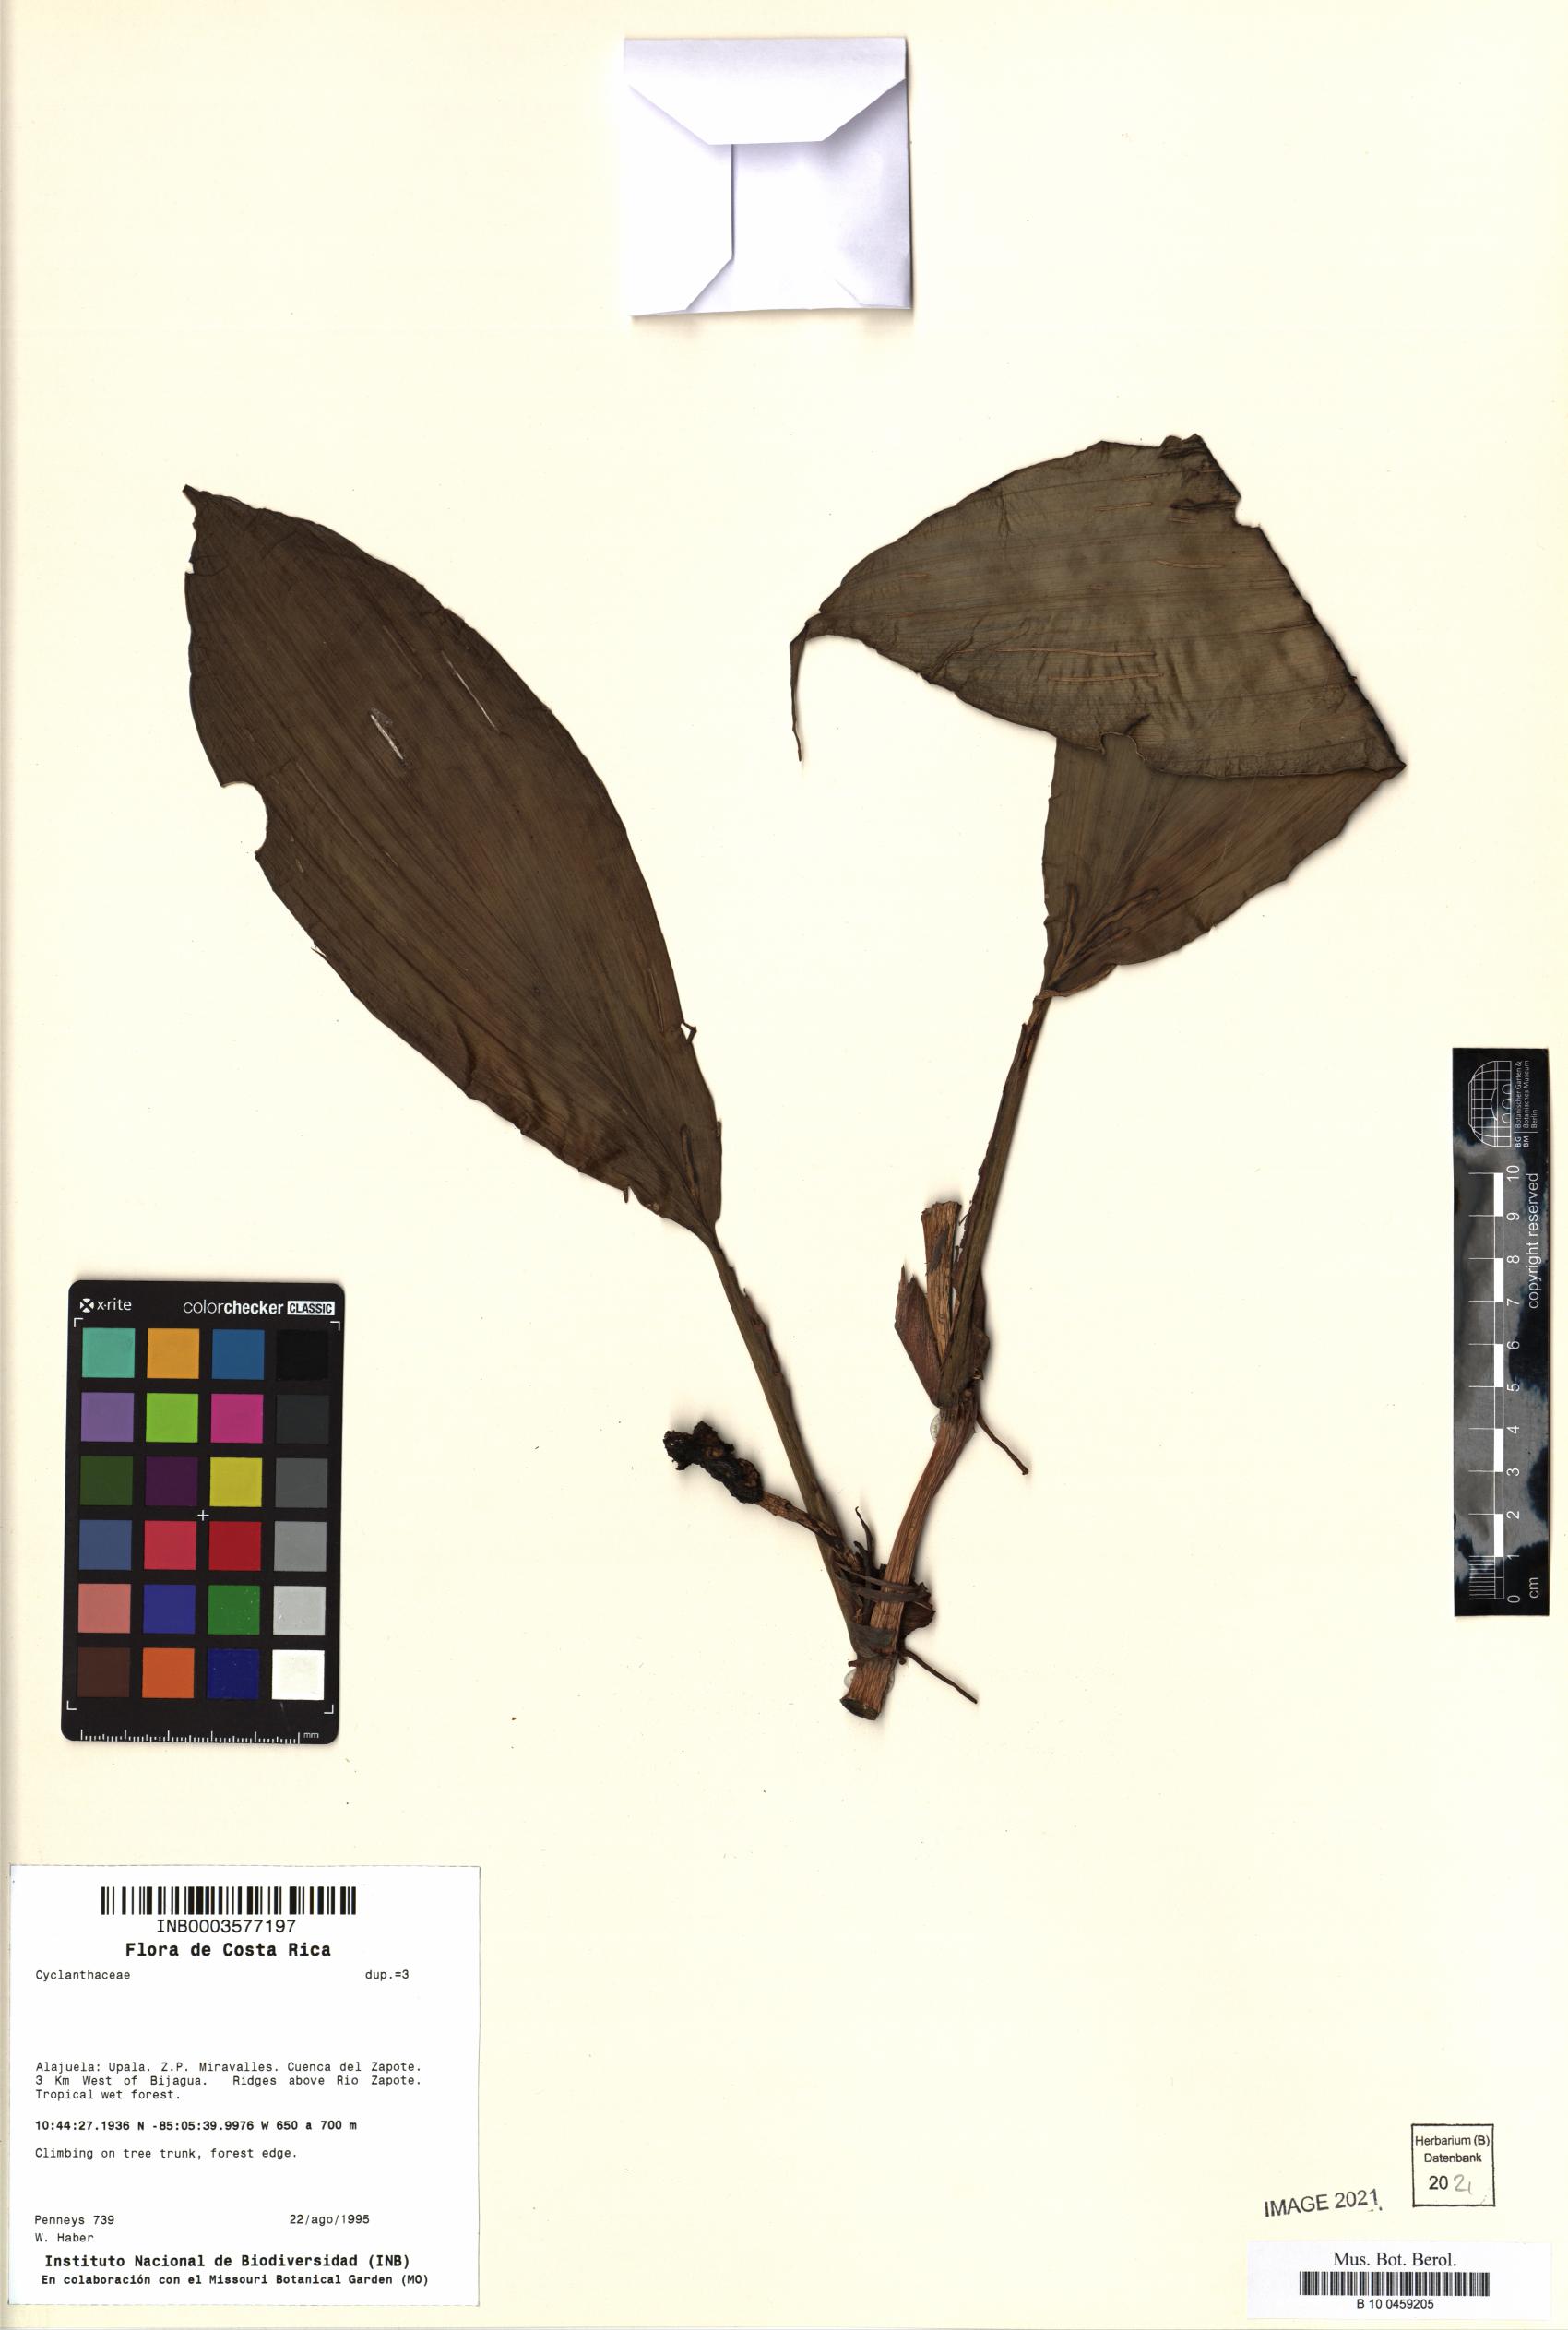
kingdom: Plantae
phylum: Tracheophyta
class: Liliopsida
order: Pandanales
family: Cyclanthaceae
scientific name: Cyclanthaceae
